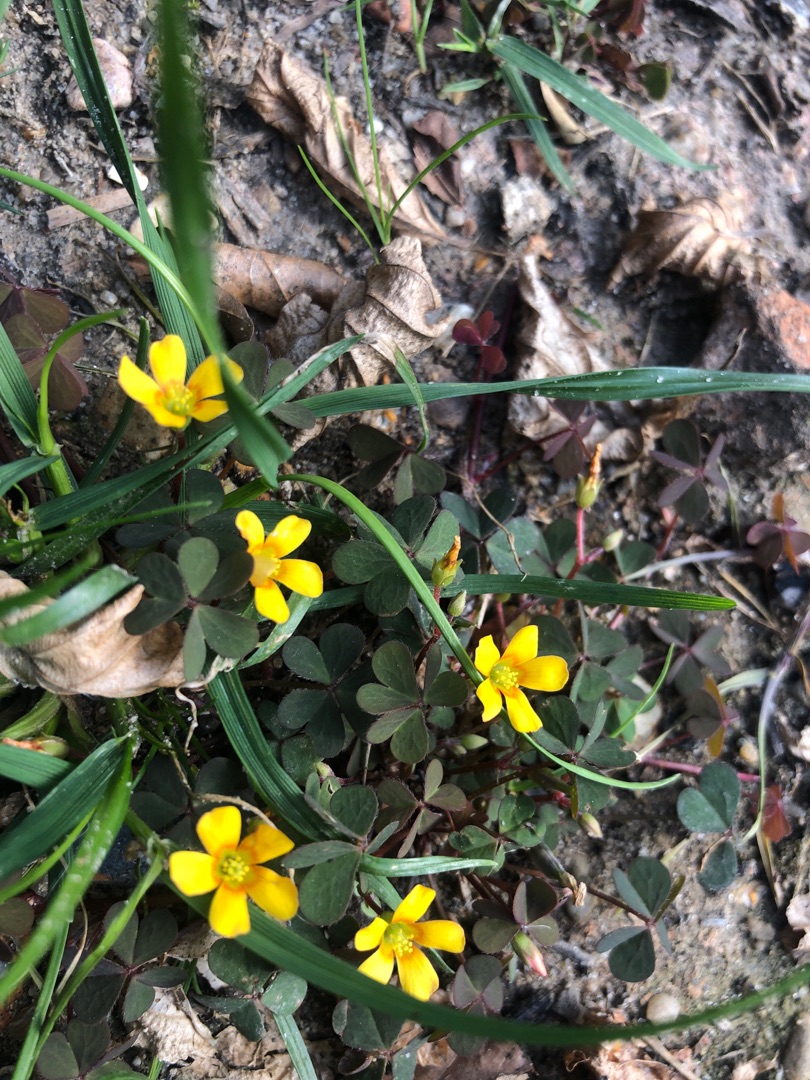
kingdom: Plantae
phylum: Tracheophyta
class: Magnoliopsida
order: Oxalidales
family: Oxalidaceae
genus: Oxalis
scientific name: Oxalis corniculata
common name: Nedliggende surkløver
